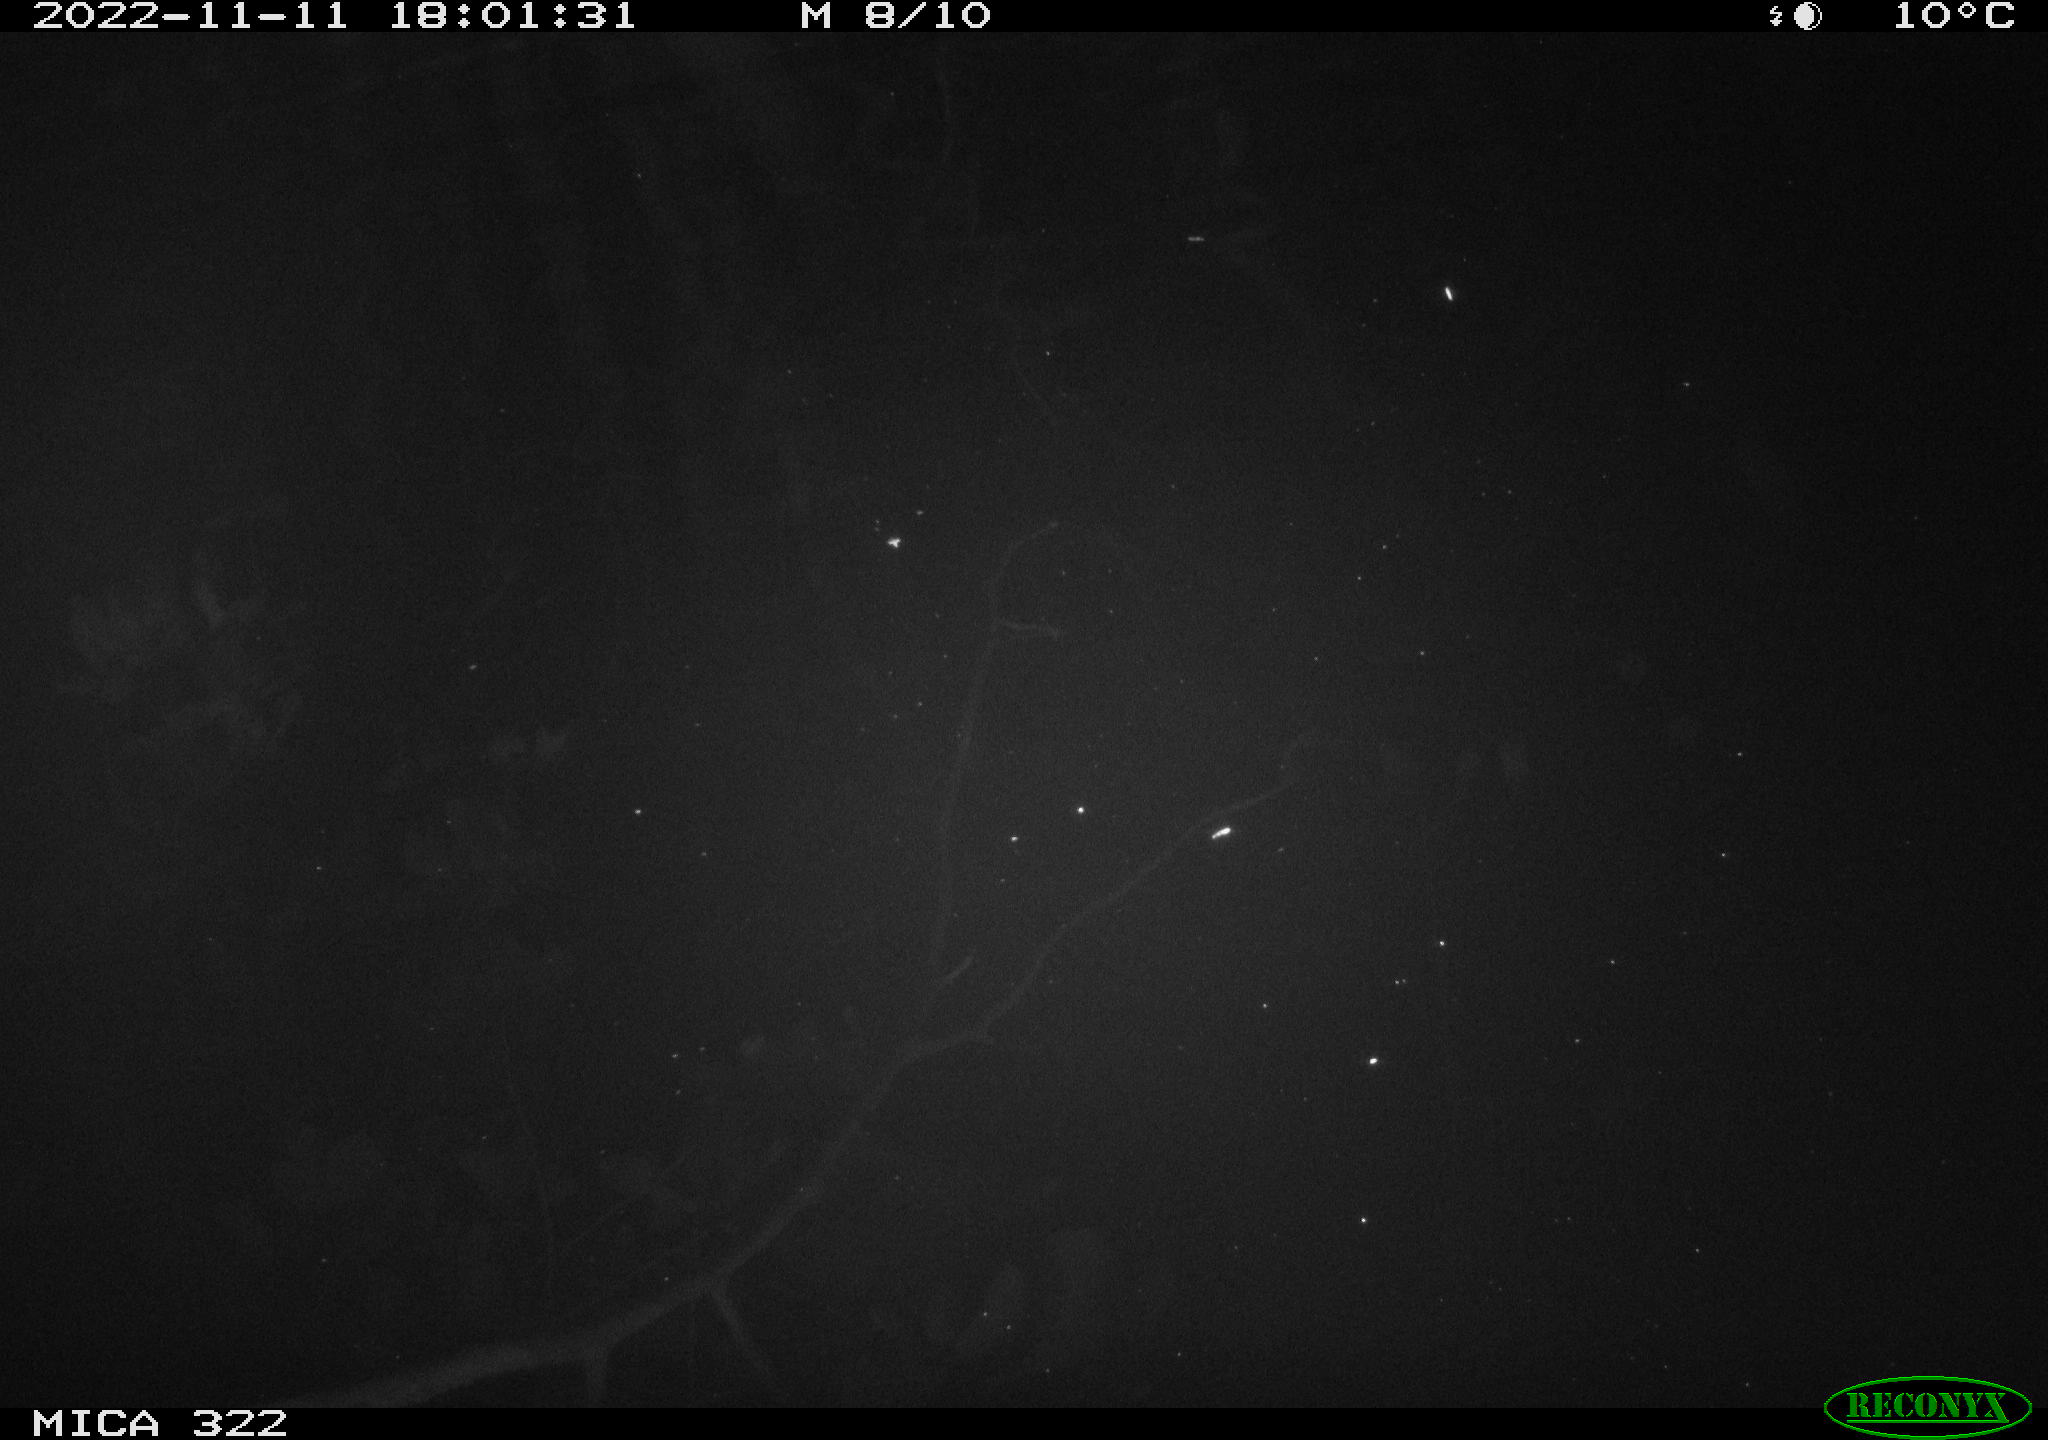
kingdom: Animalia
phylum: Chordata
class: Mammalia
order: Rodentia
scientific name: Rodentia
